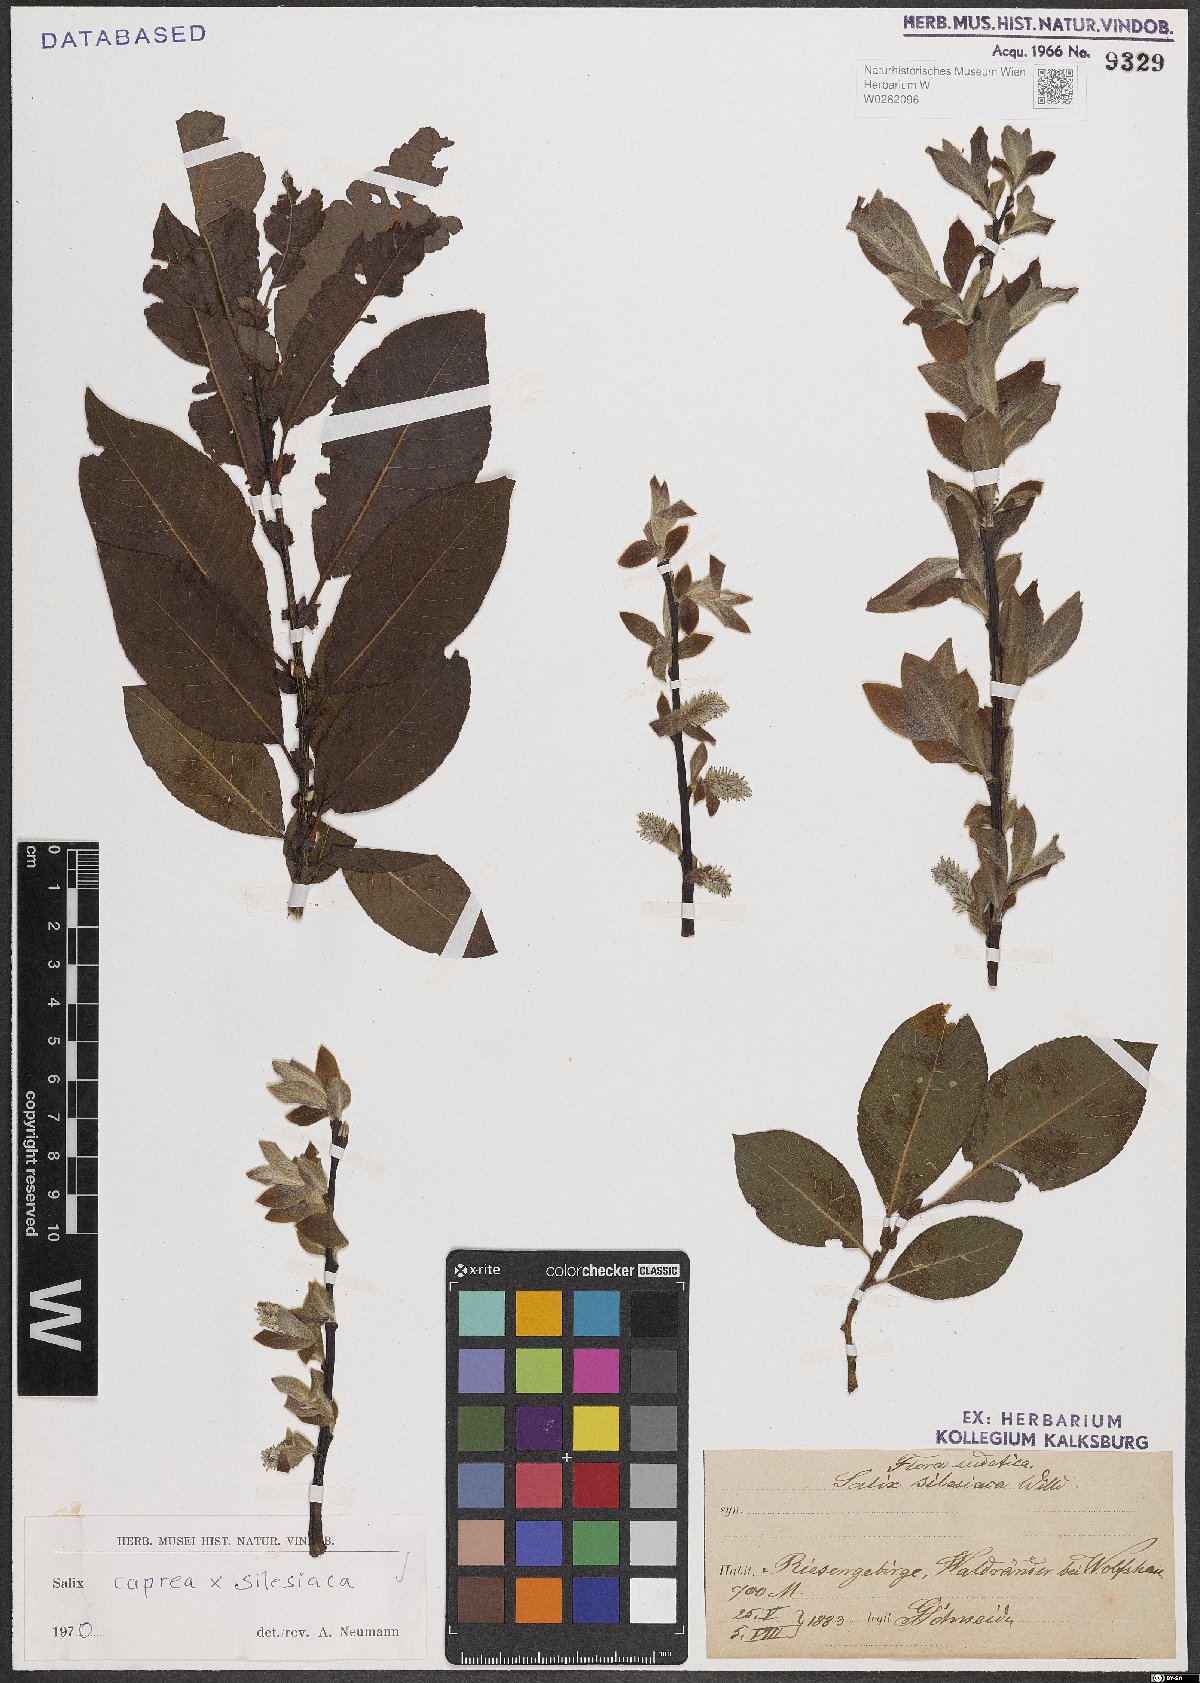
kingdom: Plantae
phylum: Tracheophyta
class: Magnoliopsida
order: Malpighiales
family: Salicaceae
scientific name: Salicaceae
